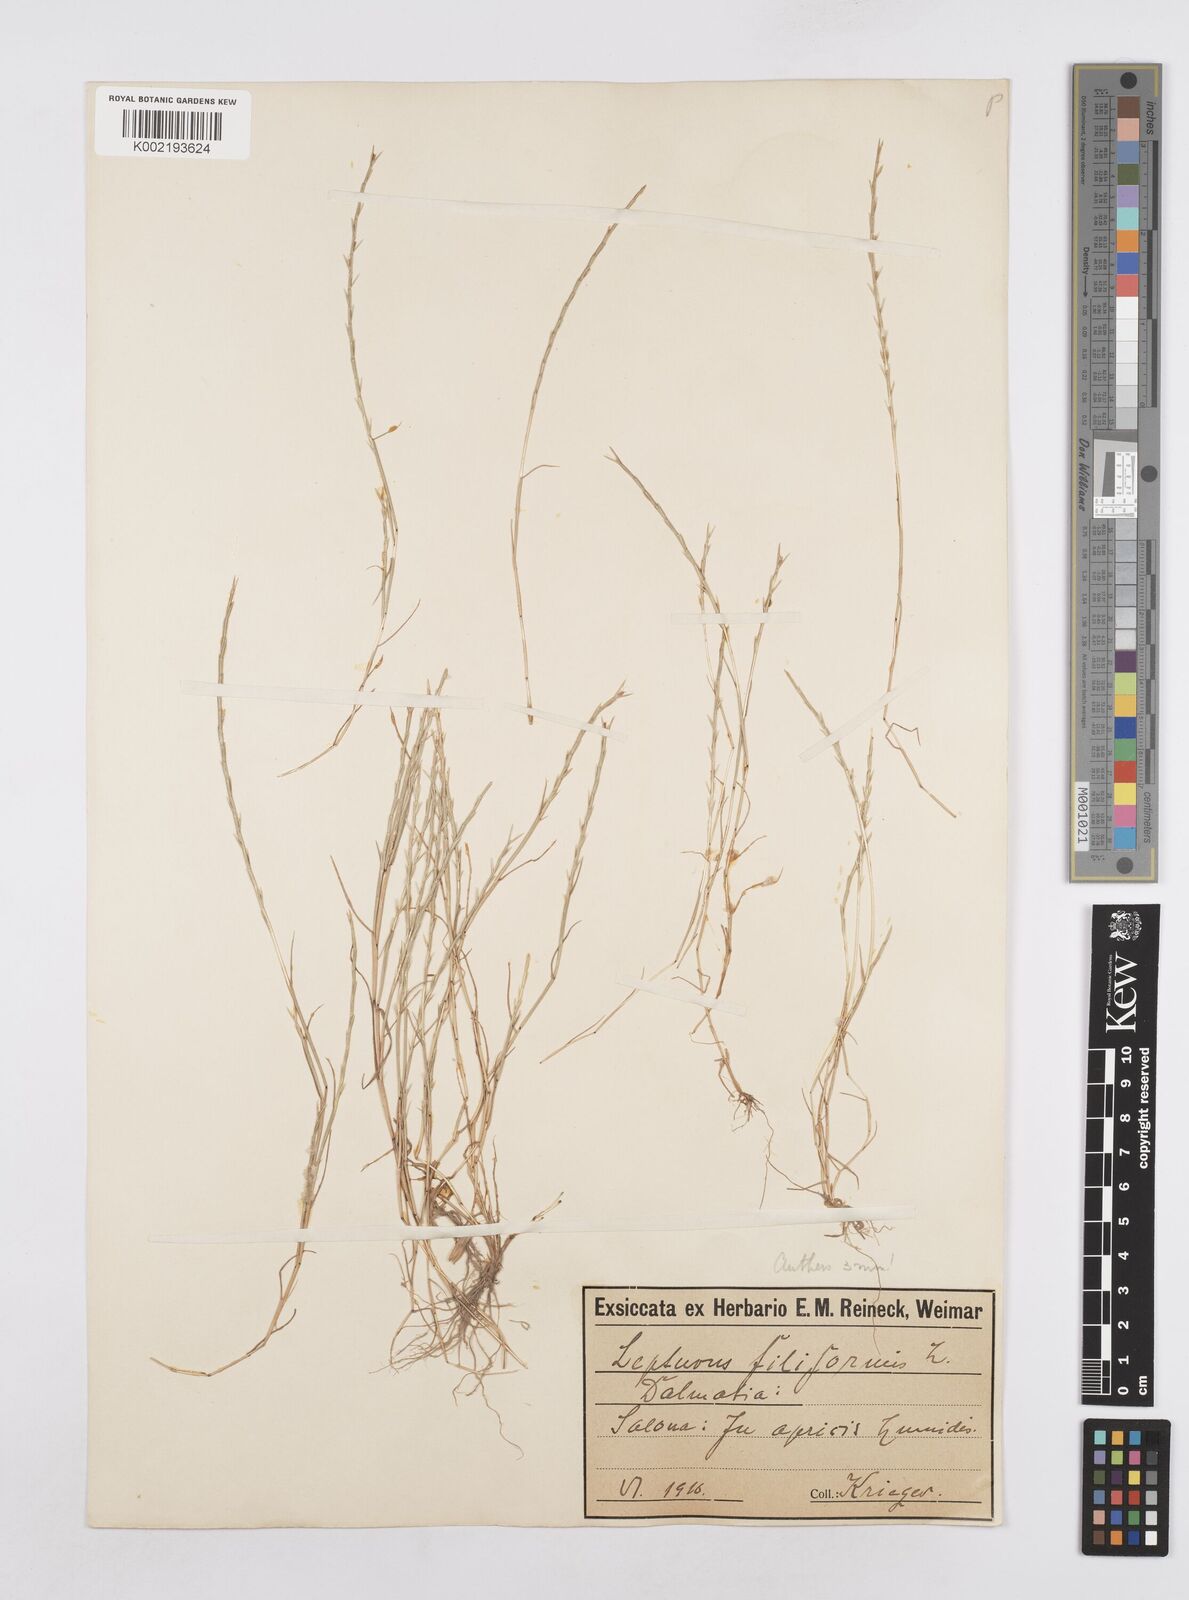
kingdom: Plantae
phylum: Tracheophyta
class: Liliopsida
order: Poales
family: Poaceae
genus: Parapholis
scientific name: Parapholis filiformis
